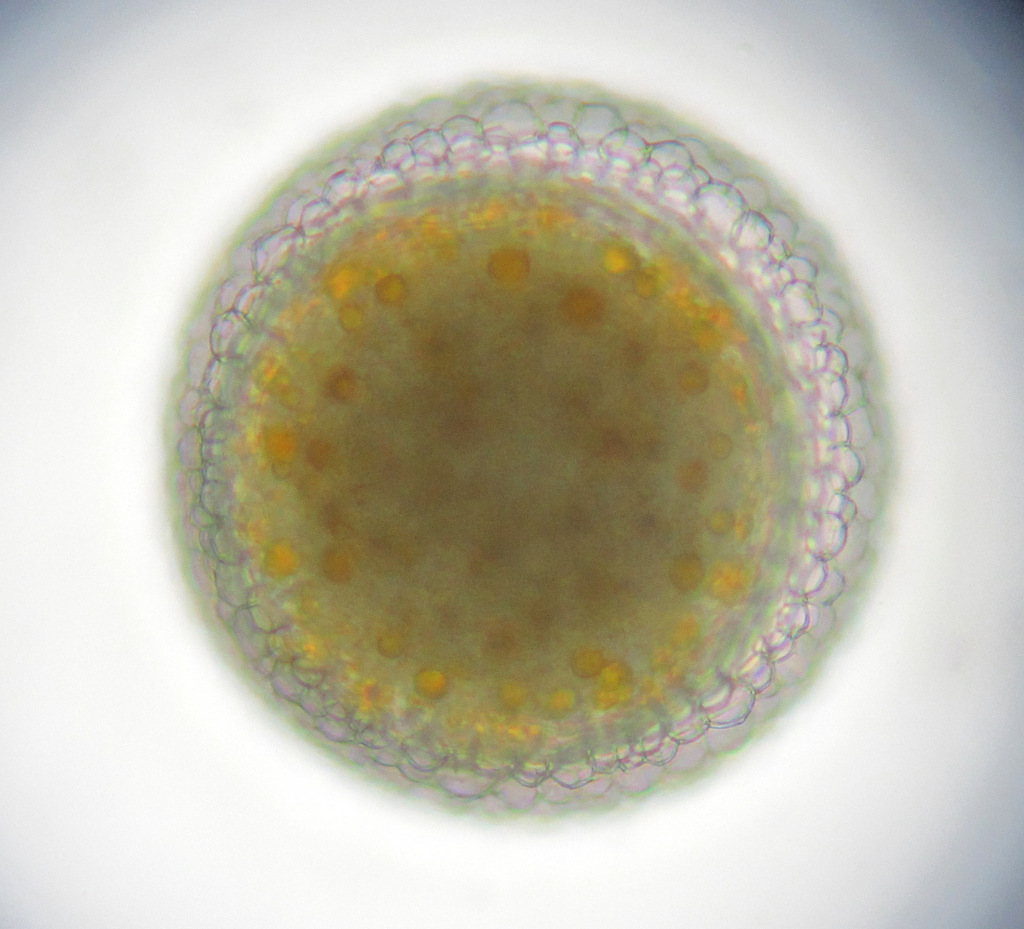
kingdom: Animalia
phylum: Rotifera
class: Eurotatoria
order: Ploima
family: Asplanchnidae
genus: Asplanchna
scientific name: Asplanchna priodonta
